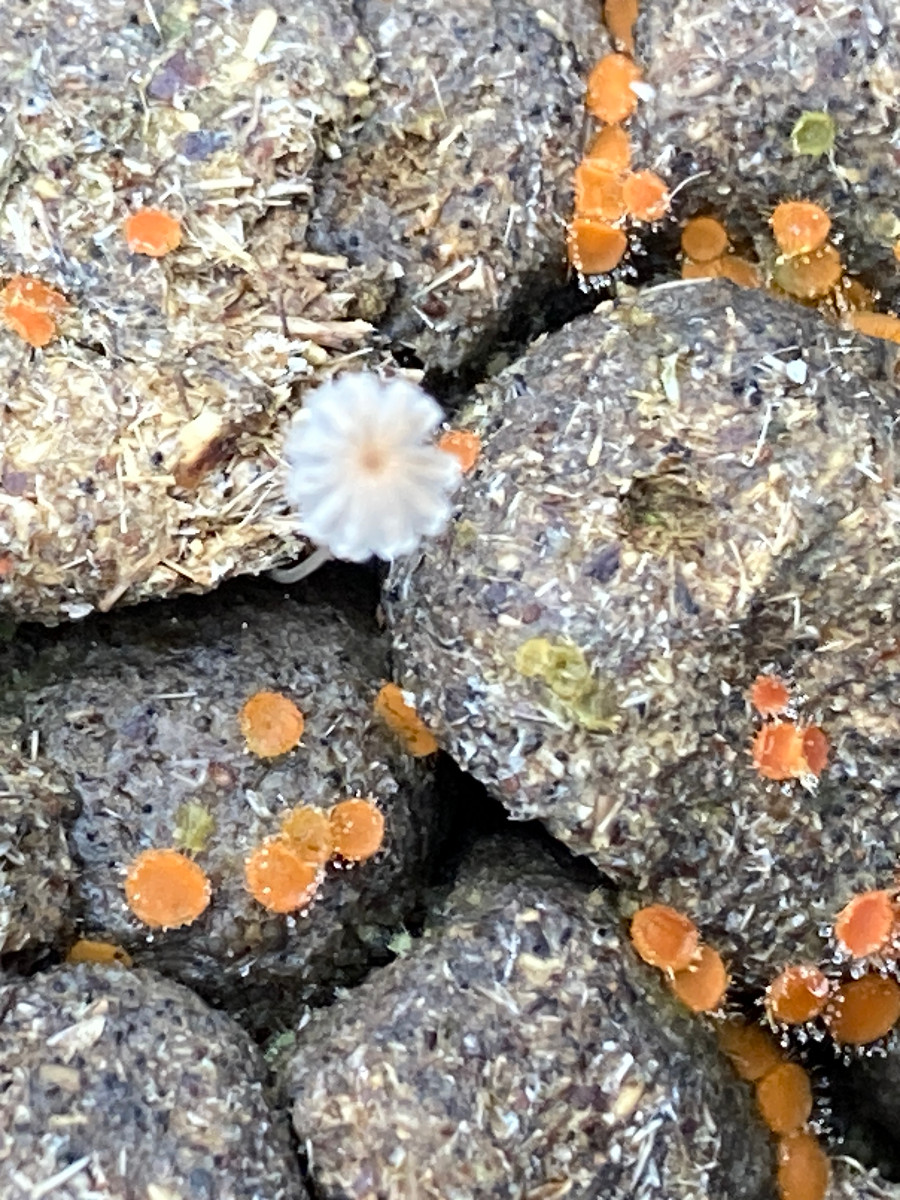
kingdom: Fungi
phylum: Basidiomycota
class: Agaricomycetes
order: Agaricales
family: Psathyrellaceae
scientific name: Psathyrellaceae
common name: mørkhatfamilien
